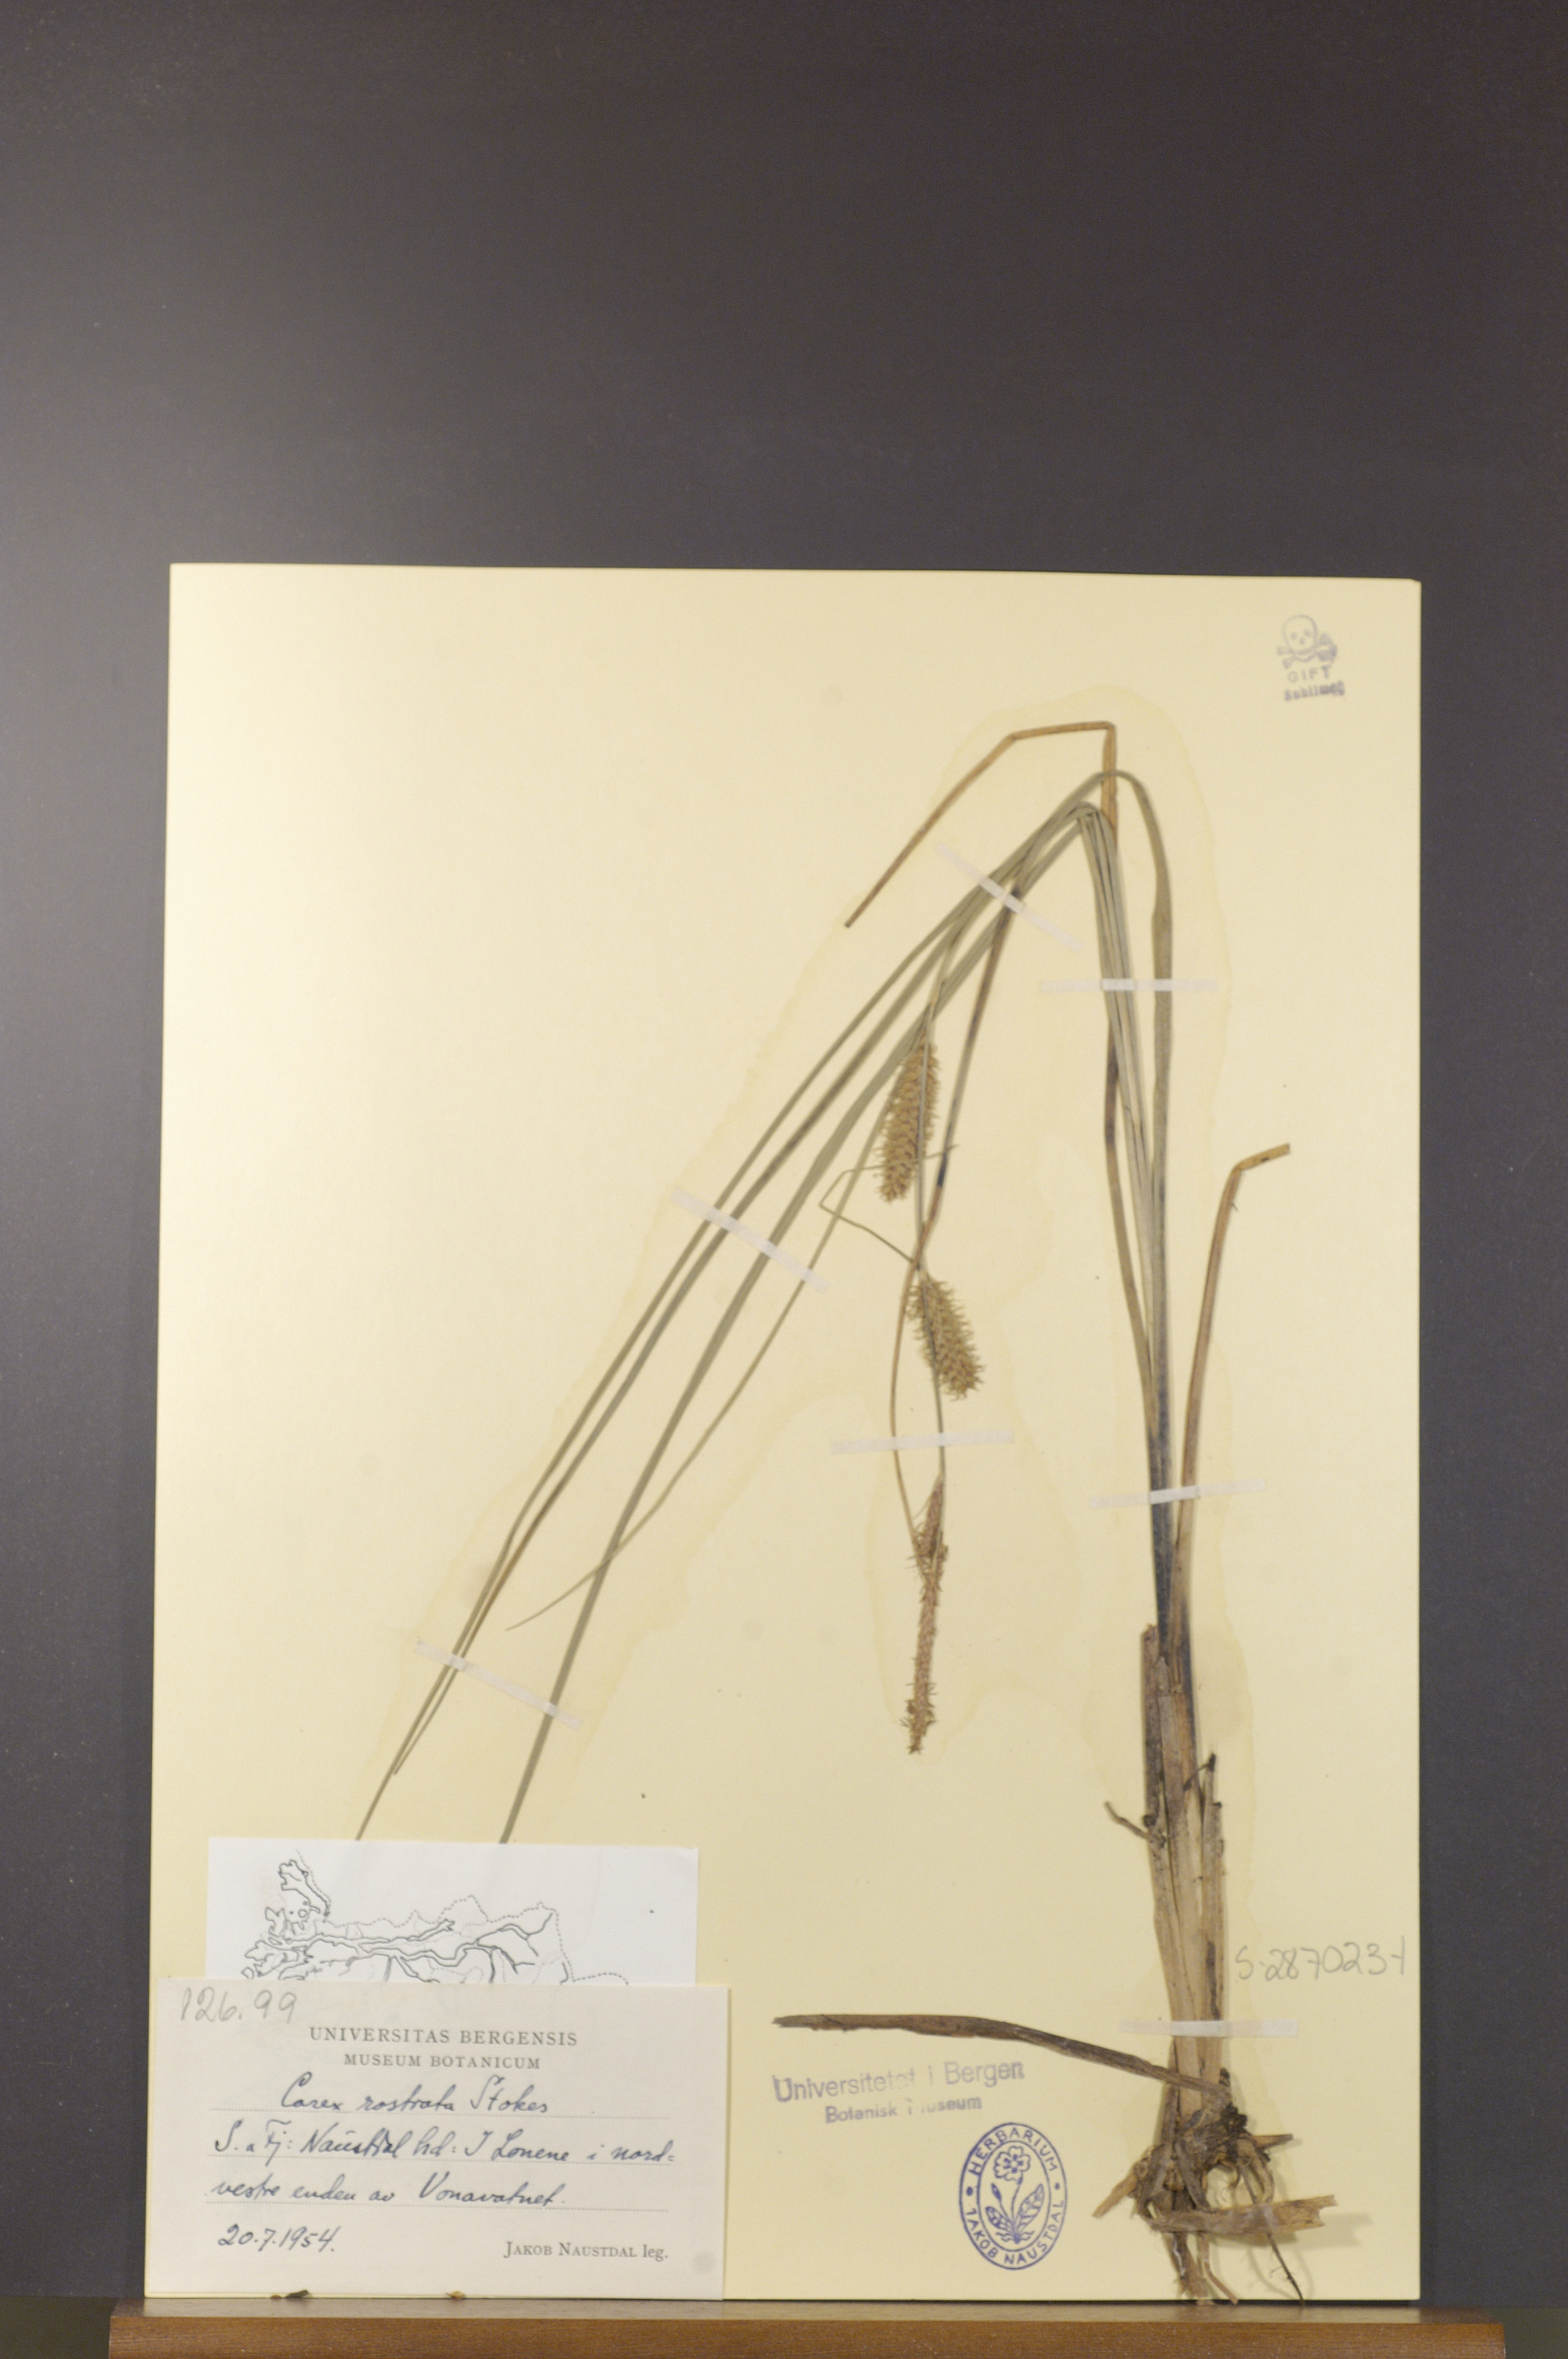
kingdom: Plantae
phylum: Tracheophyta
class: Liliopsida
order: Poales
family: Cyperaceae
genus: Carex
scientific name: Carex rostrata
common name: Bottle sedge
